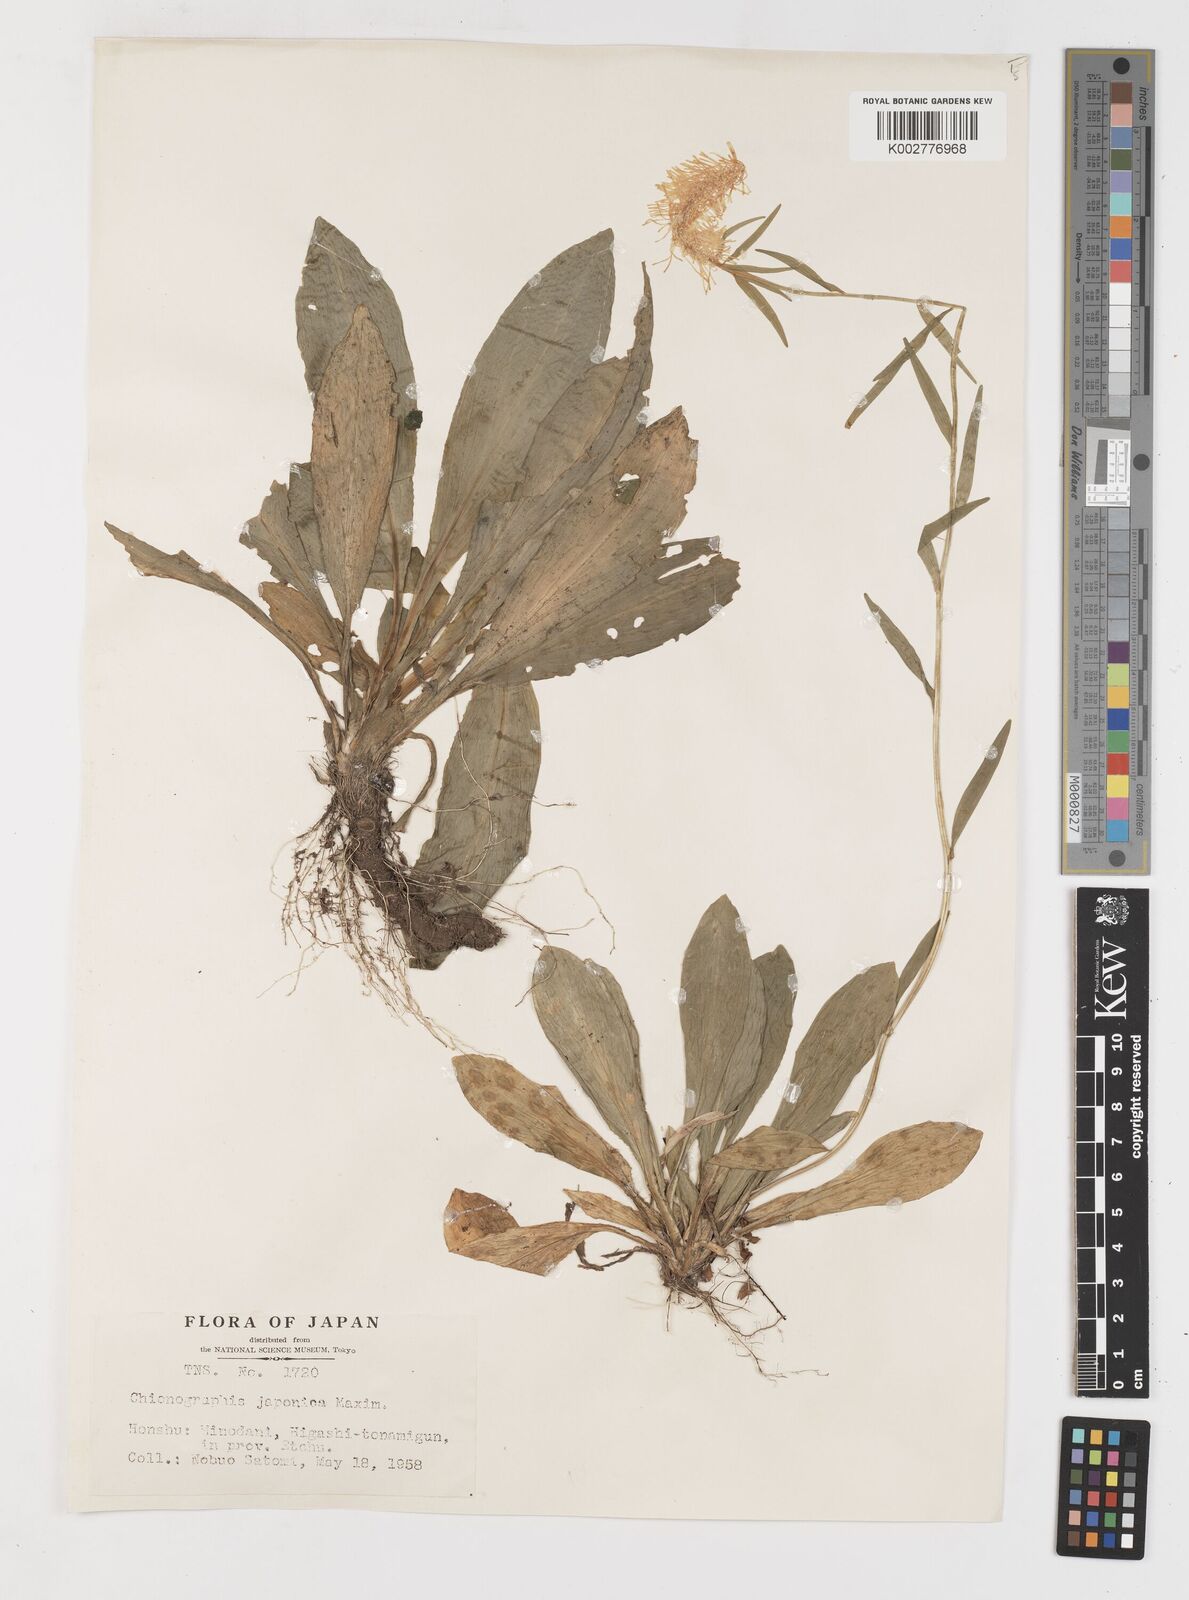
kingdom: Plantae
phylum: Tracheophyta
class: Liliopsida
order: Liliales
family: Melanthiaceae
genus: Chamaelirium
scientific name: Chamaelirium japonicum
